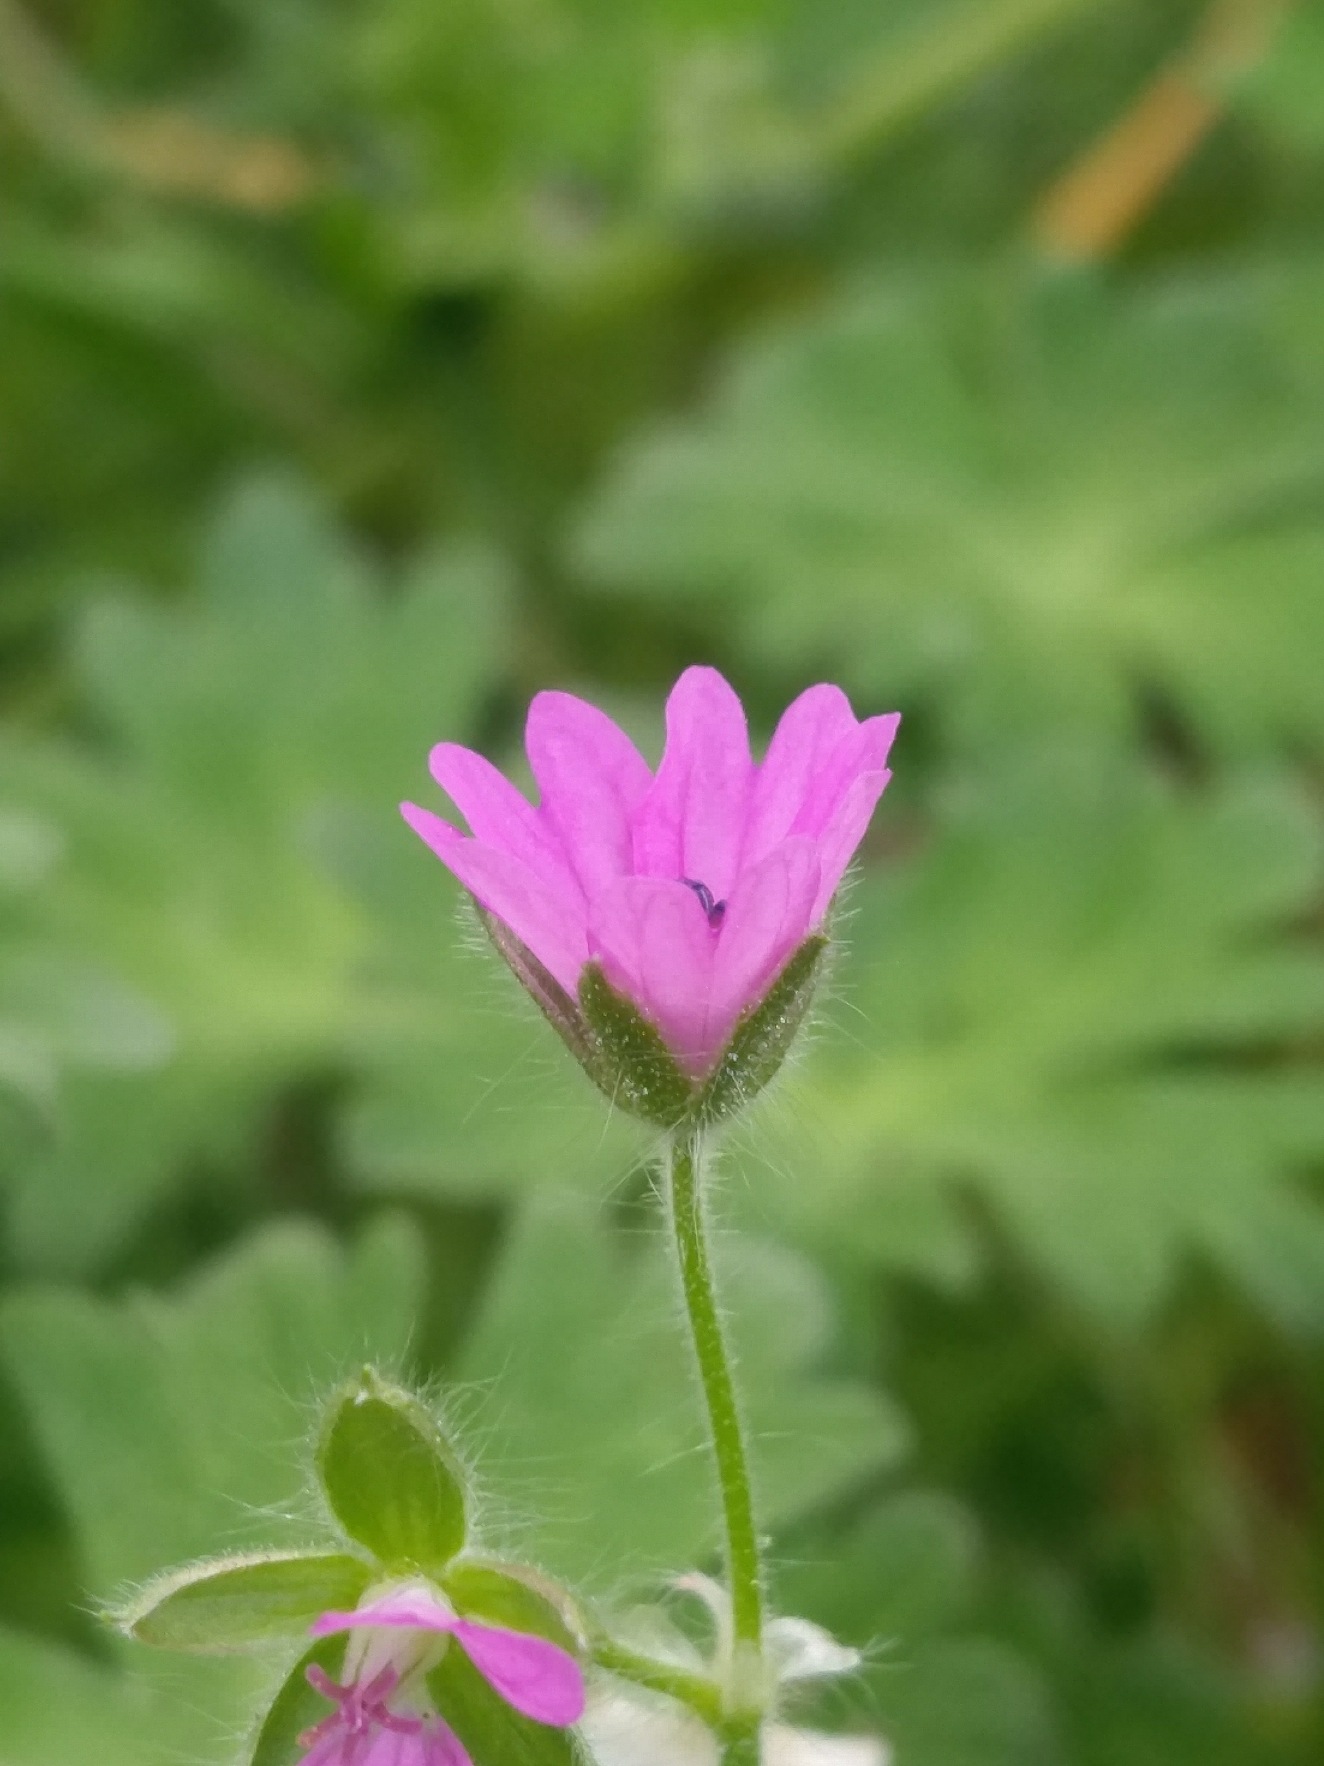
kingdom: Plantae
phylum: Tracheophyta
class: Magnoliopsida
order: Geraniales
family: Geraniaceae
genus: Geranium
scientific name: Geranium molle
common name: Blød storkenæb
